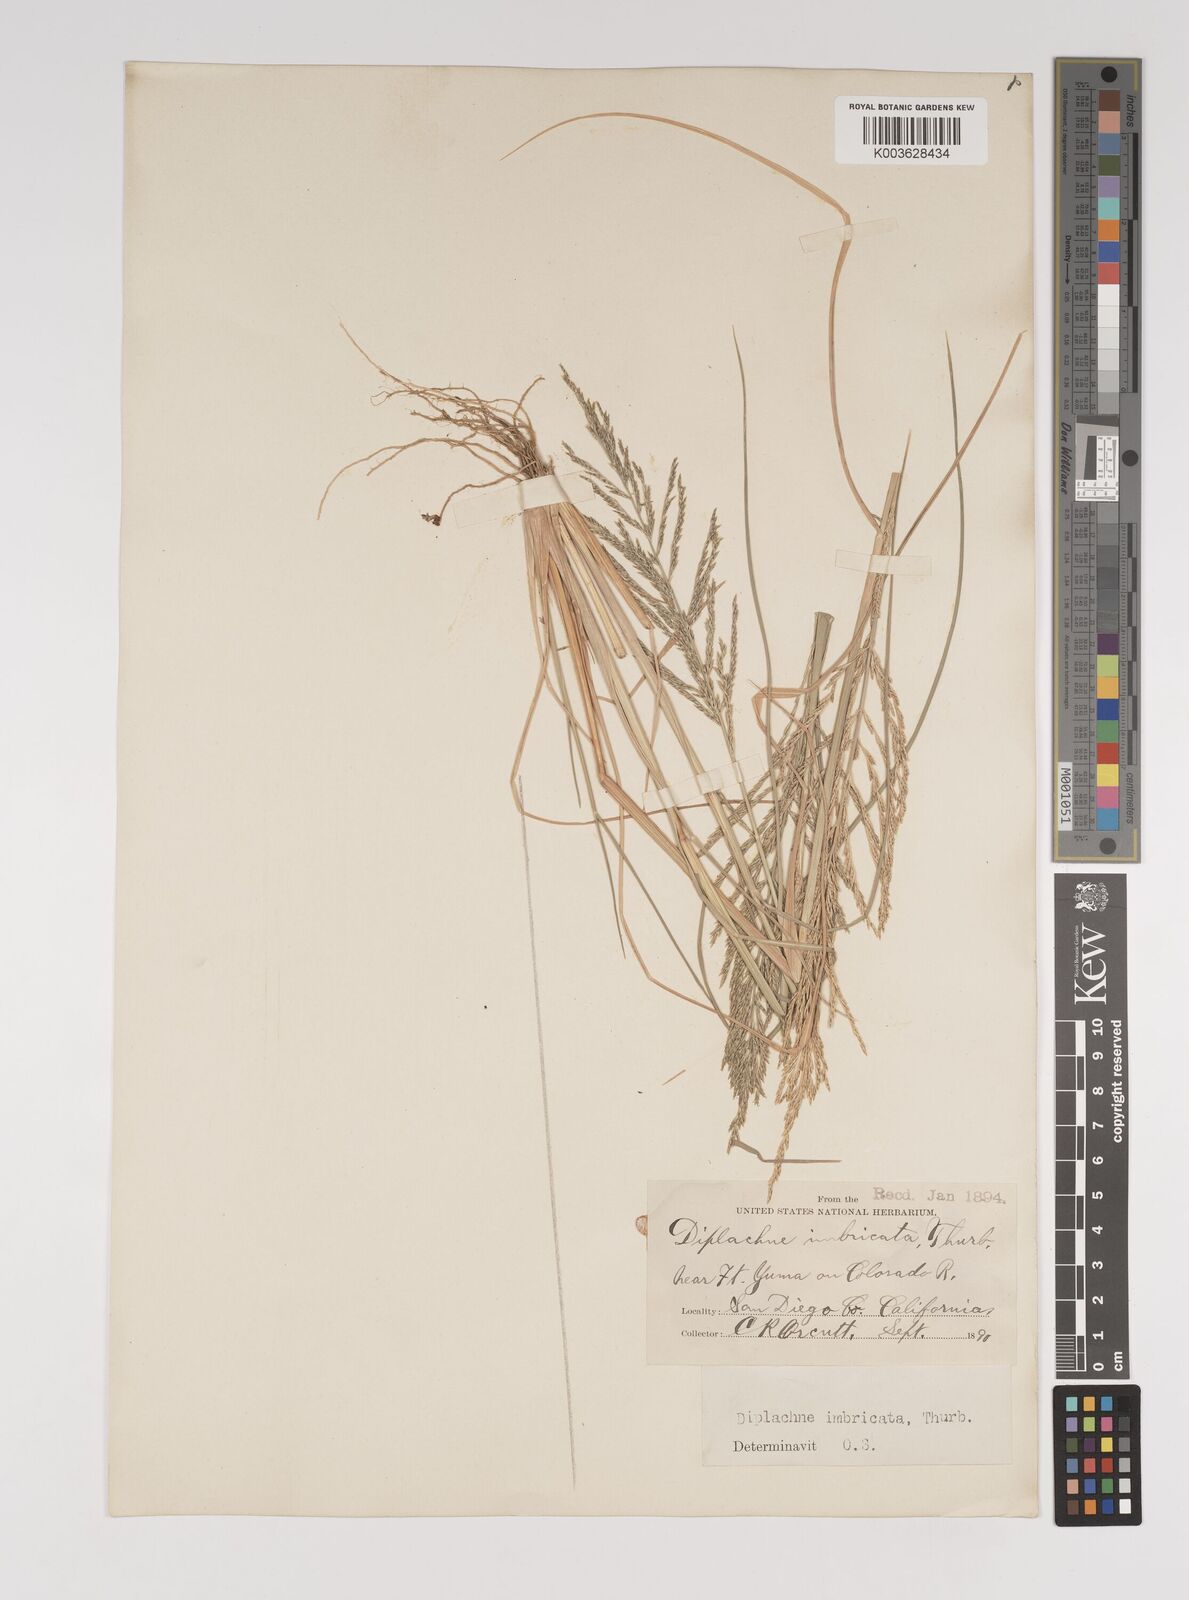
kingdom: Plantae
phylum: Tracheophyta
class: Liliopsida
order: Poales
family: Poaceae
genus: Diplachne
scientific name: Diplachne fusca
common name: Brown beetle grass
